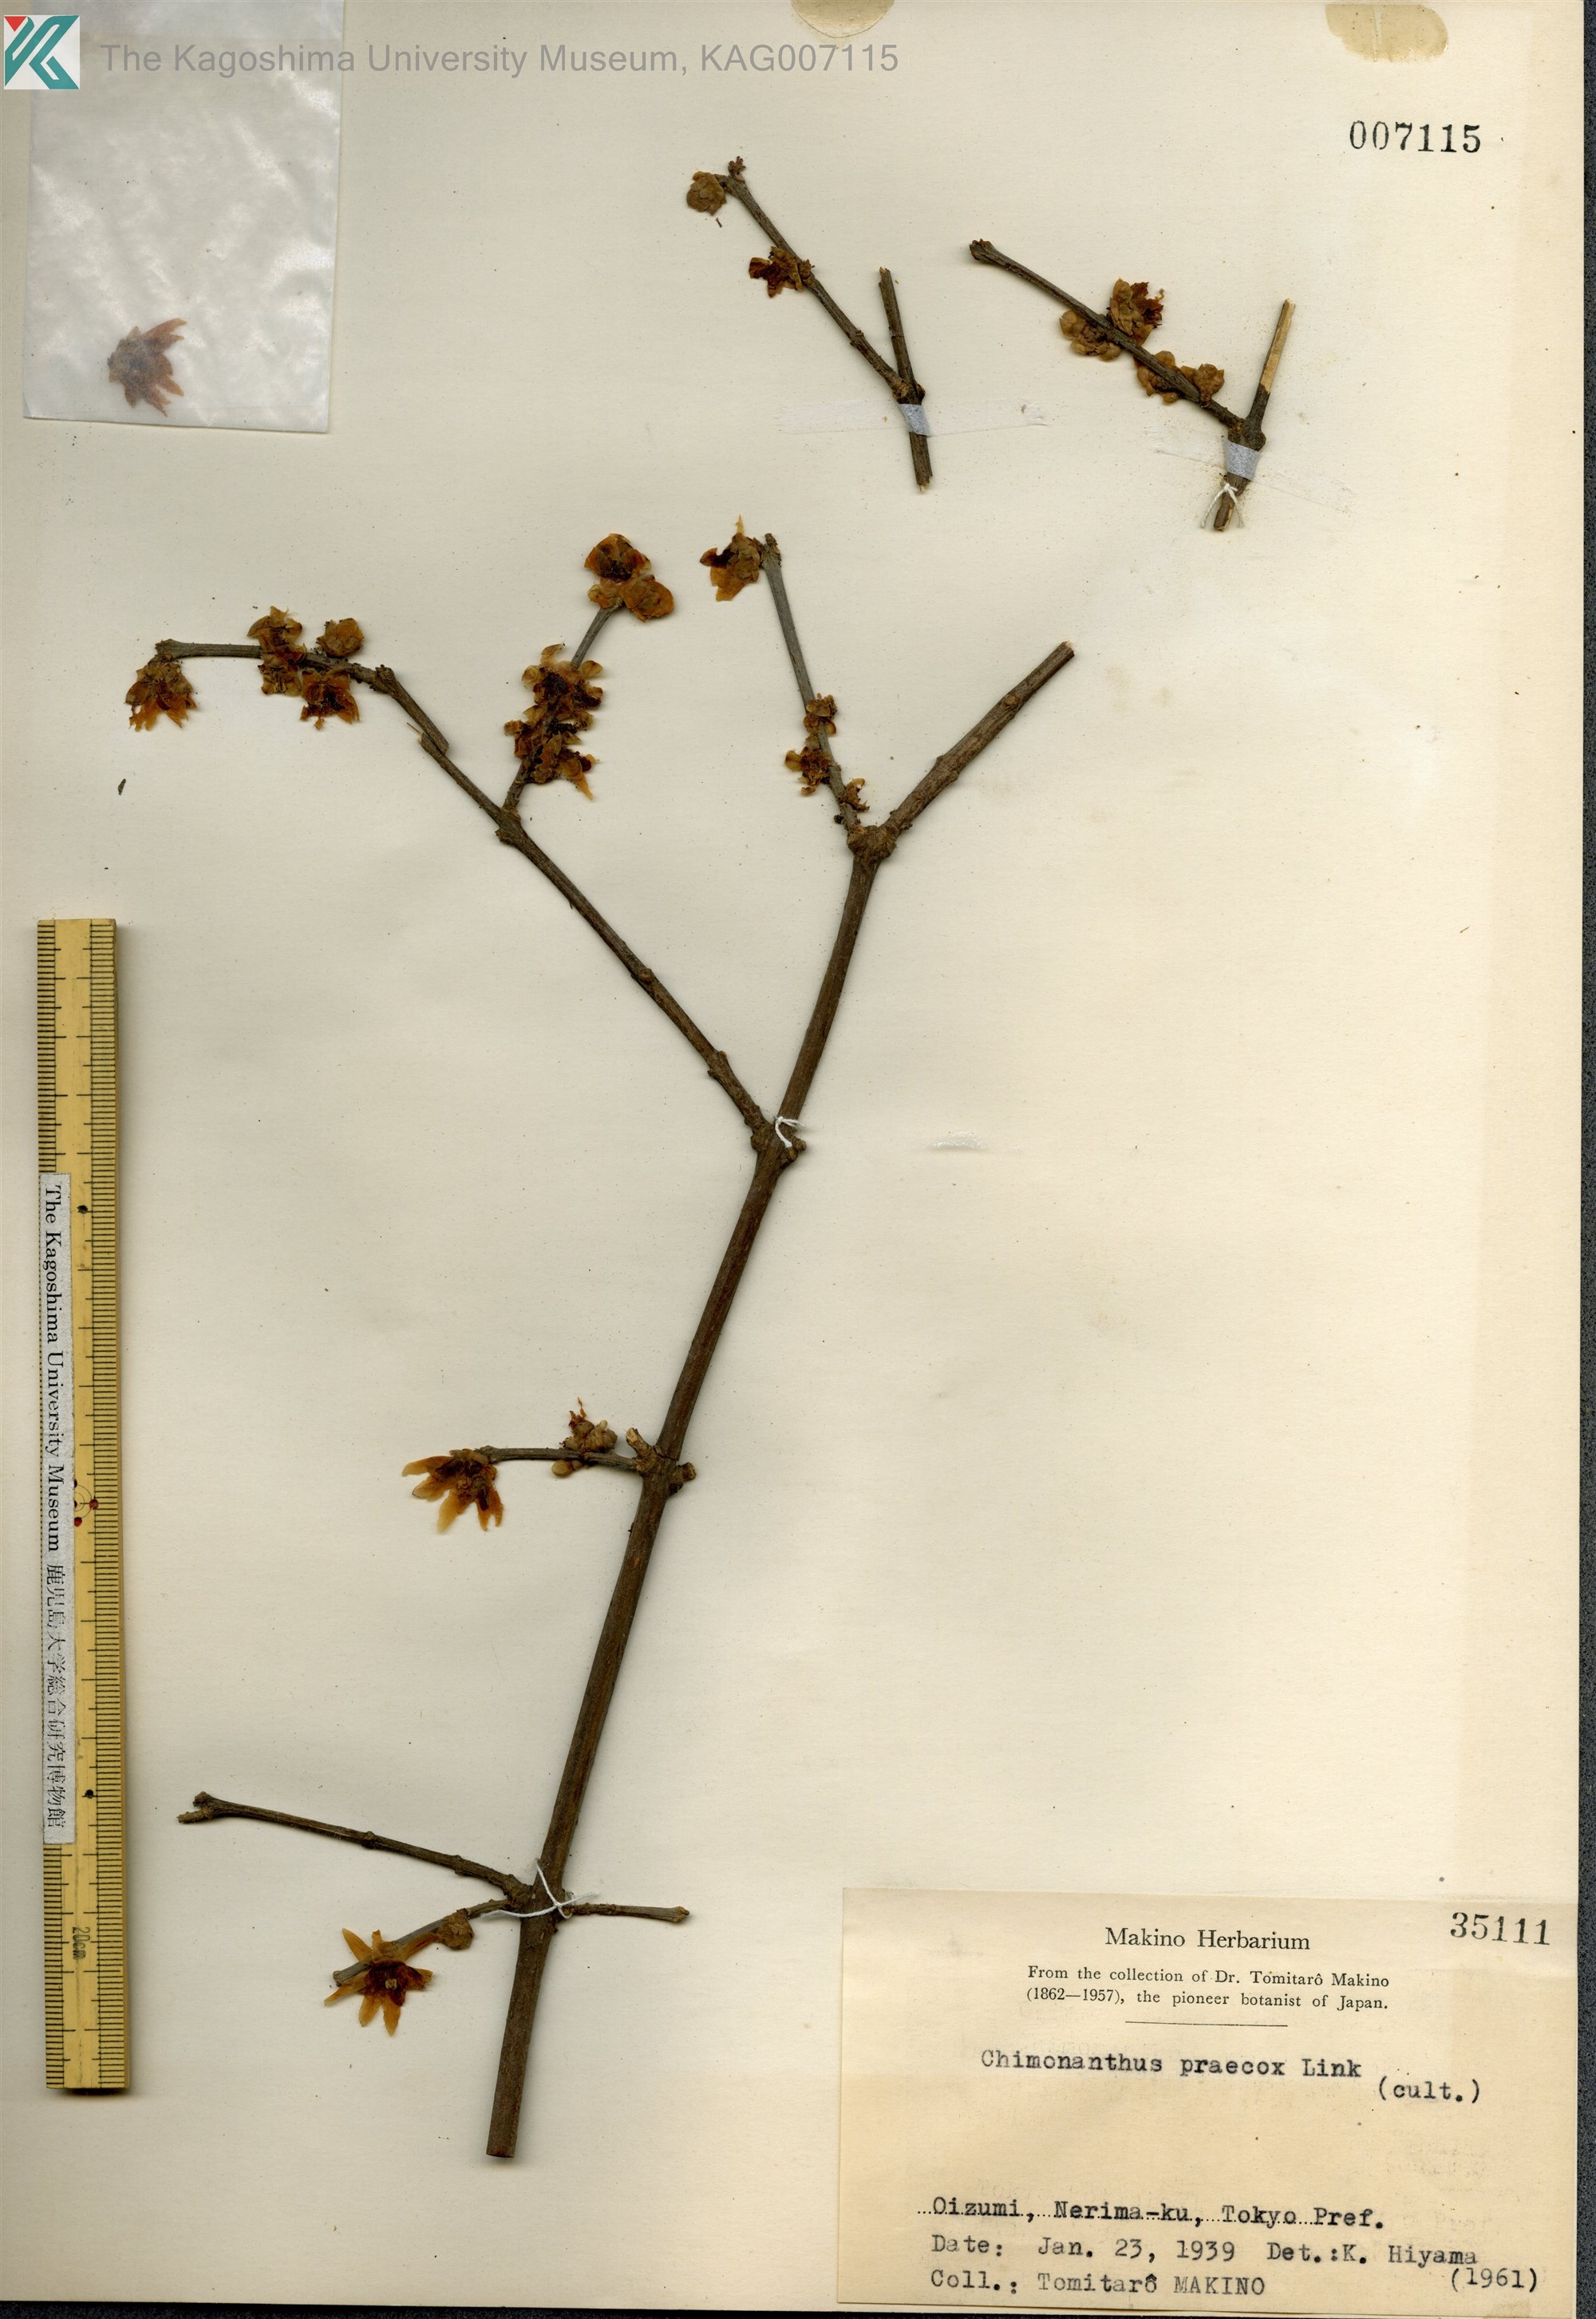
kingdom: Plantae
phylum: Tracheophyta
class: Magnoliopsida
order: Laurales
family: Calycanthaceae
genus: Chimonanthus
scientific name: Chimonanthus praecox
